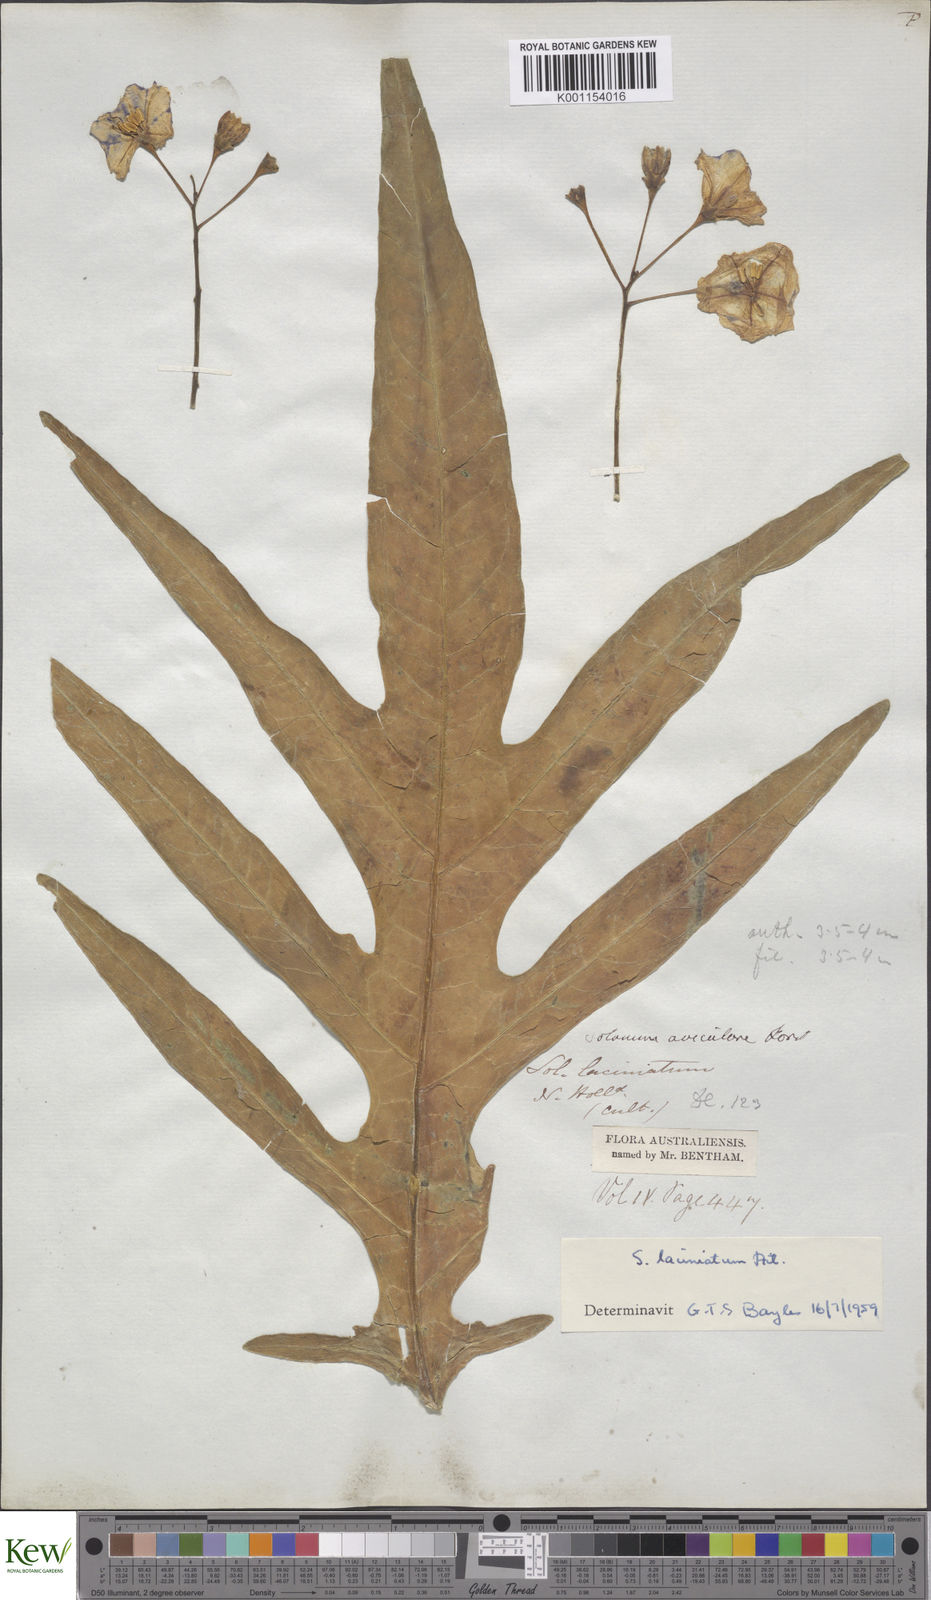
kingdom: Plantae
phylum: Tracheophyta
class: Magnoliopsida
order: Solanales
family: Solanaceae
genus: Solanum
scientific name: Solanum laciniatum
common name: Kangaroo-apple
